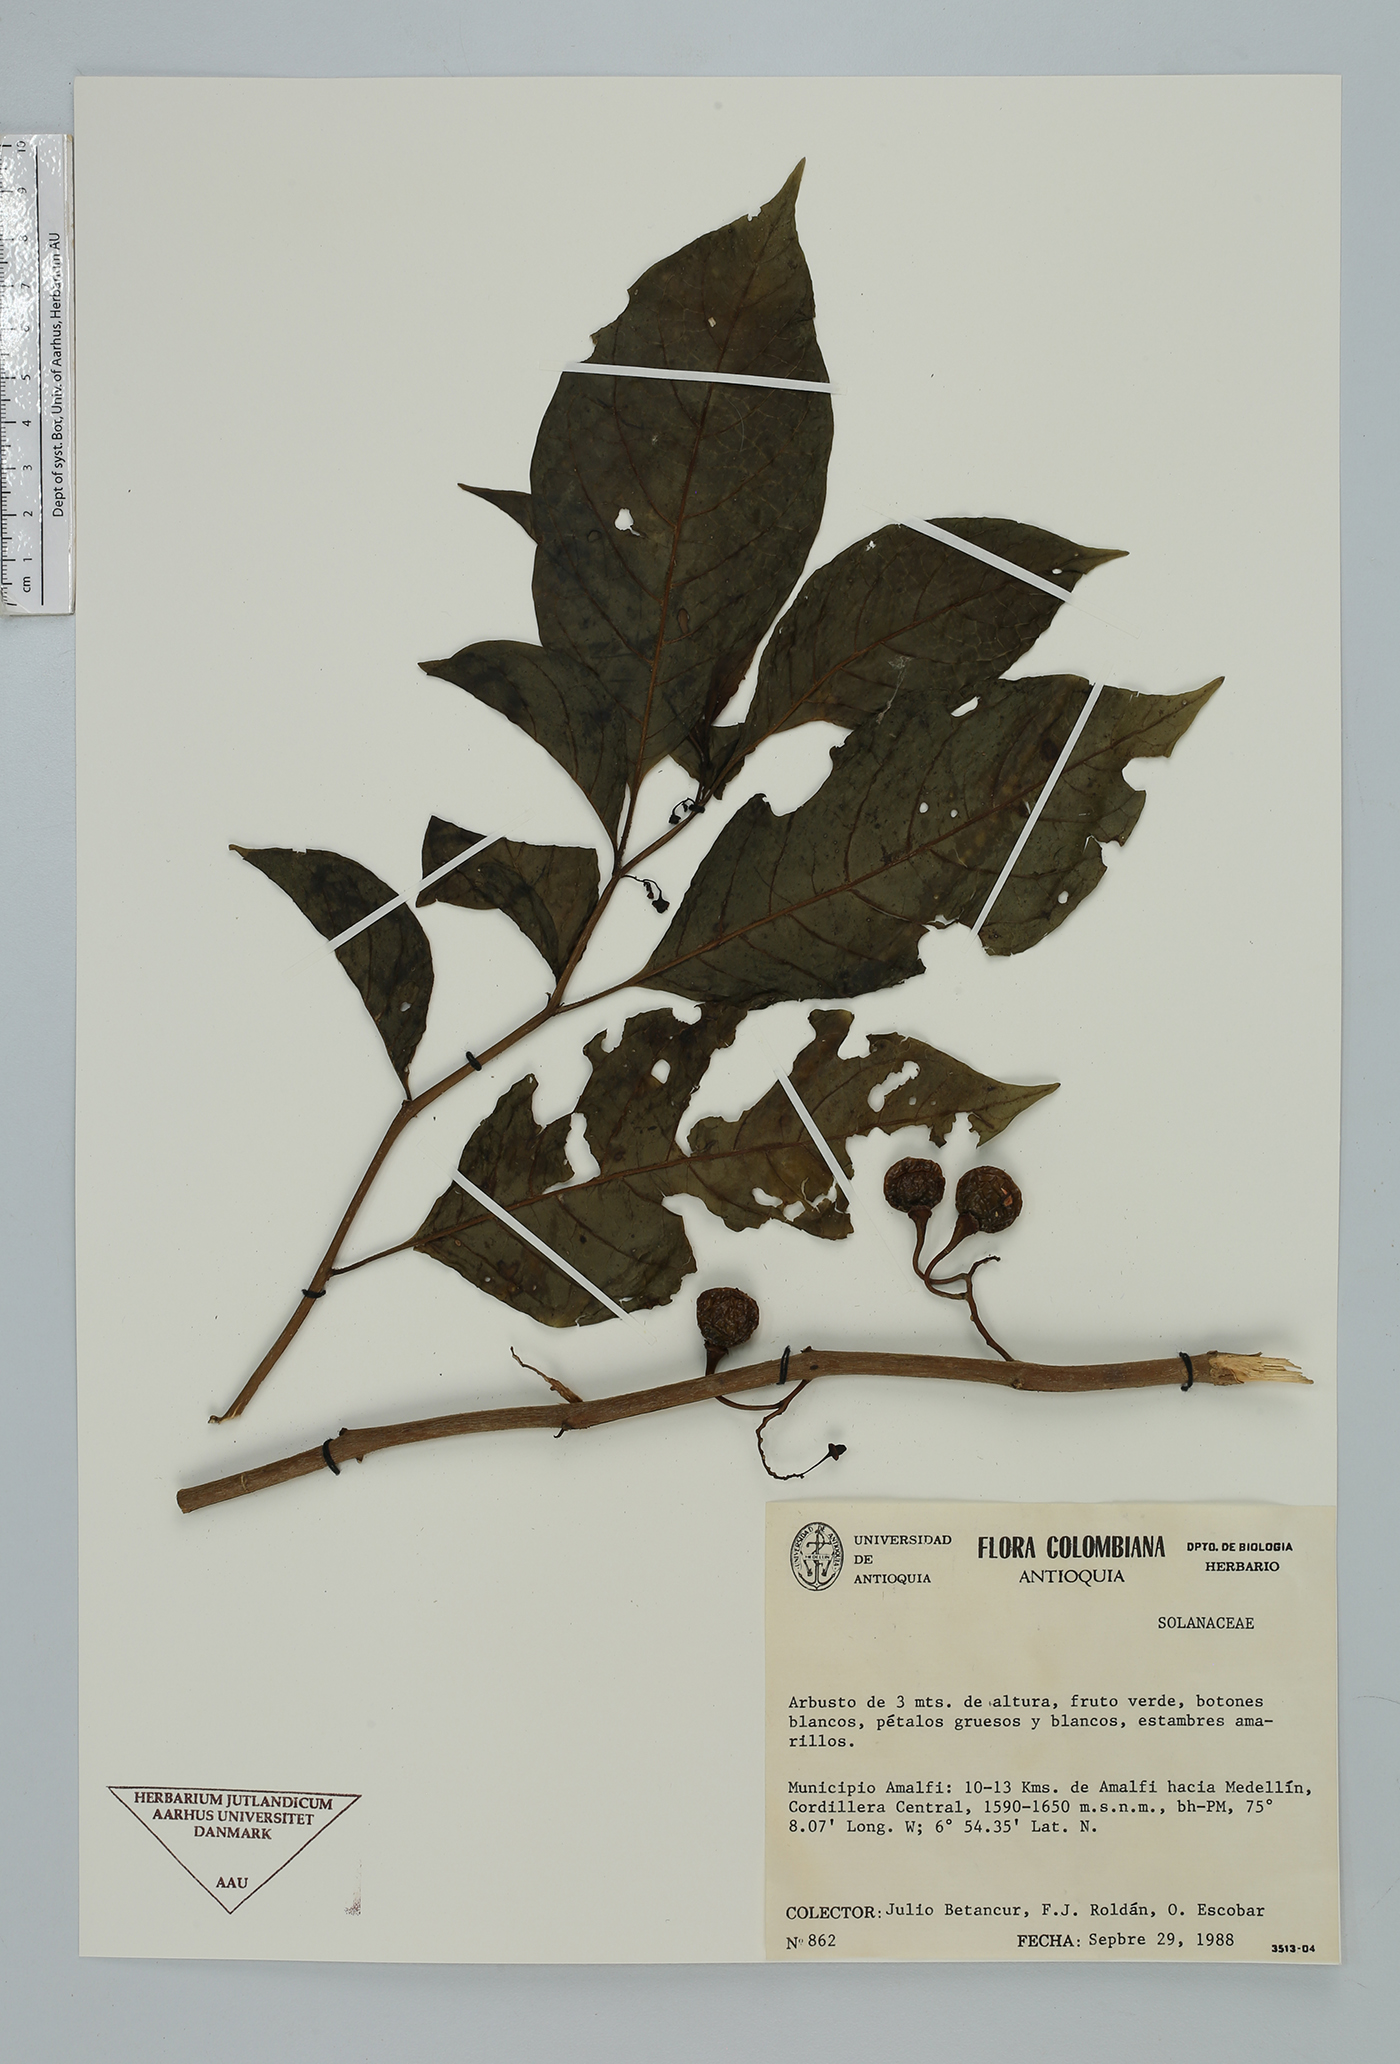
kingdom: Plantae
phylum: Tracheophyta
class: Magnoliopsida
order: Solanales
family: Solanaceae
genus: Solanum
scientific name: Solanum
